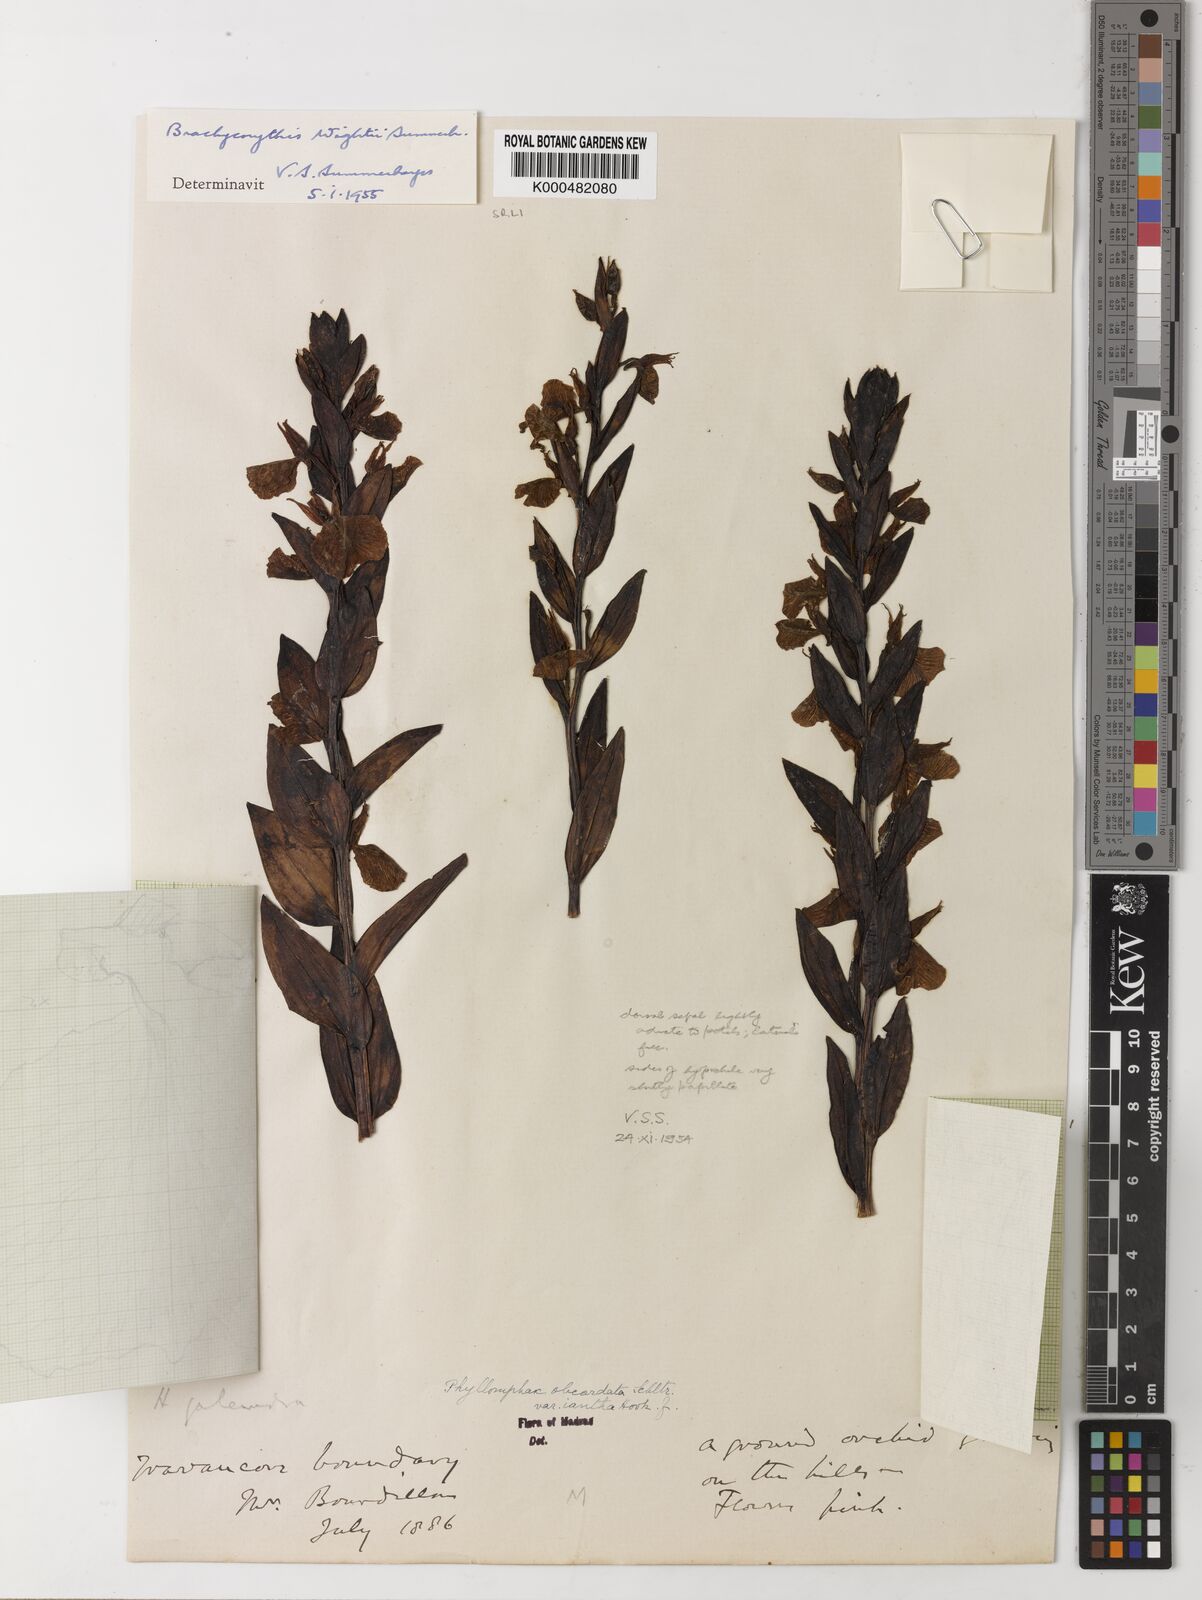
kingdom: Plantae
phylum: Tracheophyta
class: Liliopsida
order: Asparagales
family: Orchidaceae
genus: Brachycorythis
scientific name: Brachycorythis wightii
